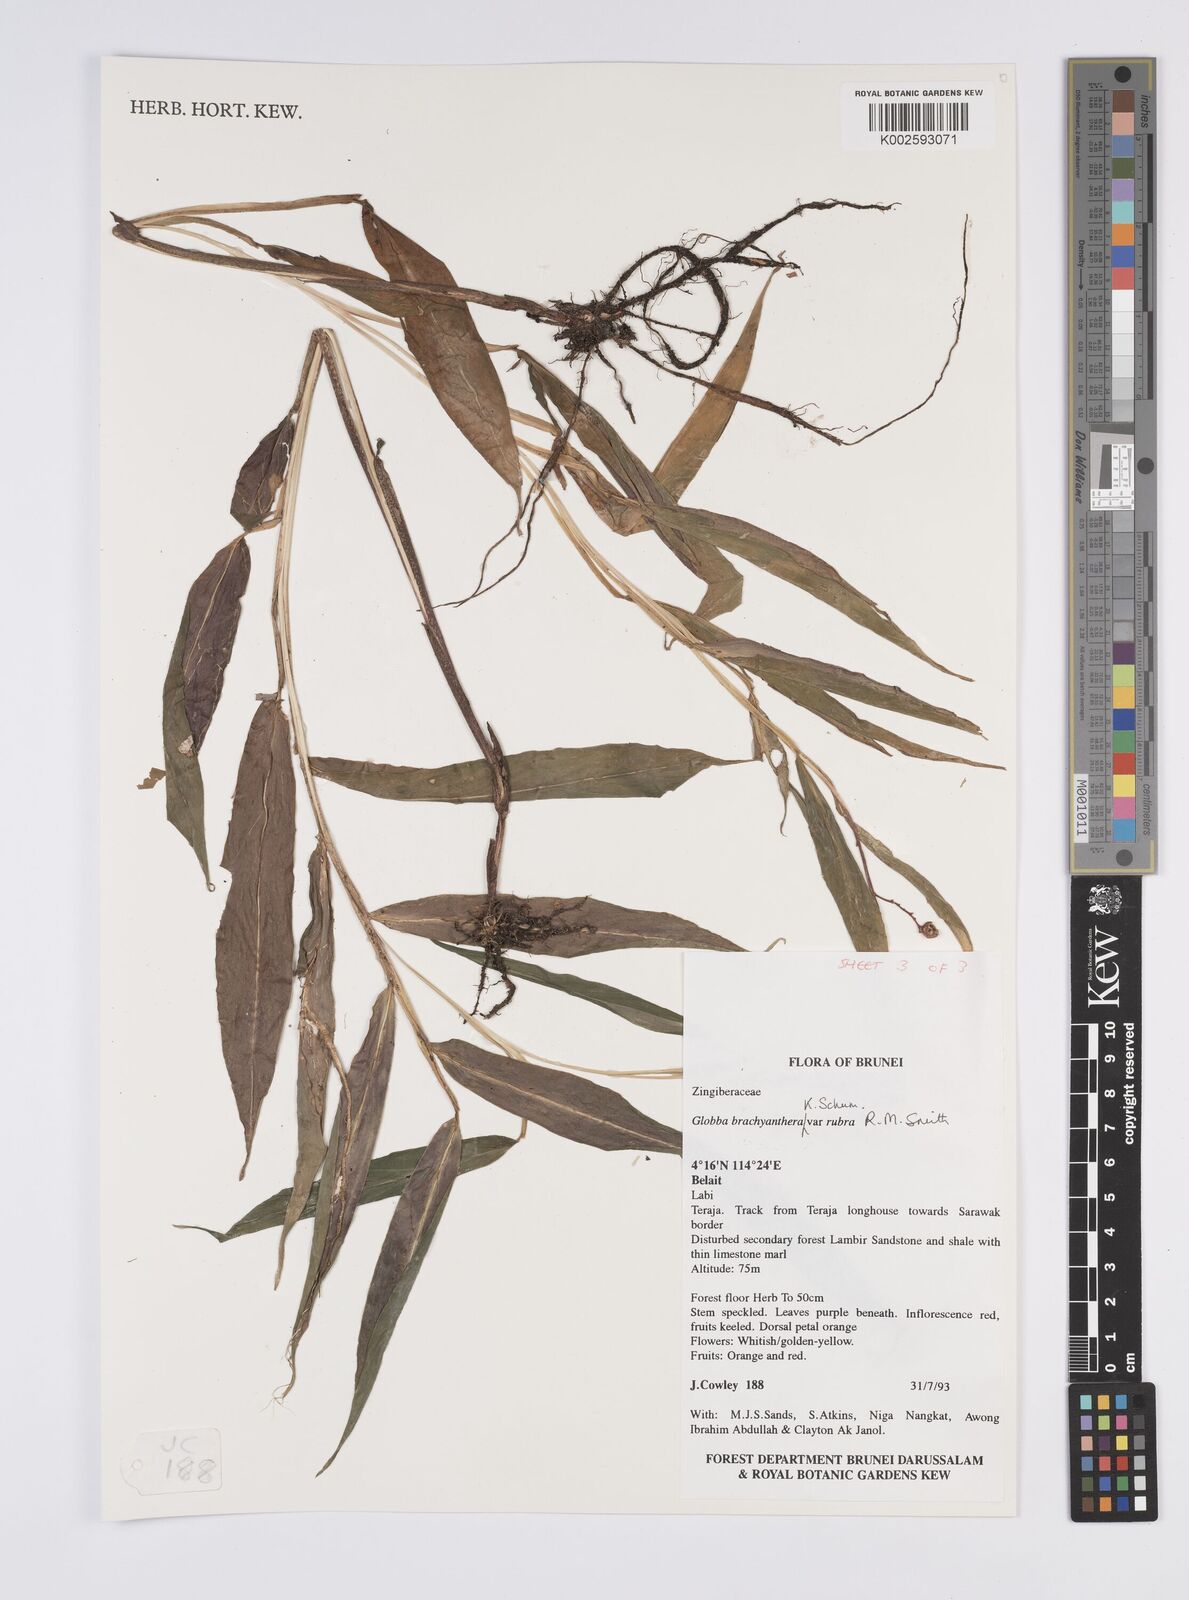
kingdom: Plantae
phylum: Tracheophyta
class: Liliopsida
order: Zingiberales
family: Zingiberaceae
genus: Globba
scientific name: Globba brachyanthera
